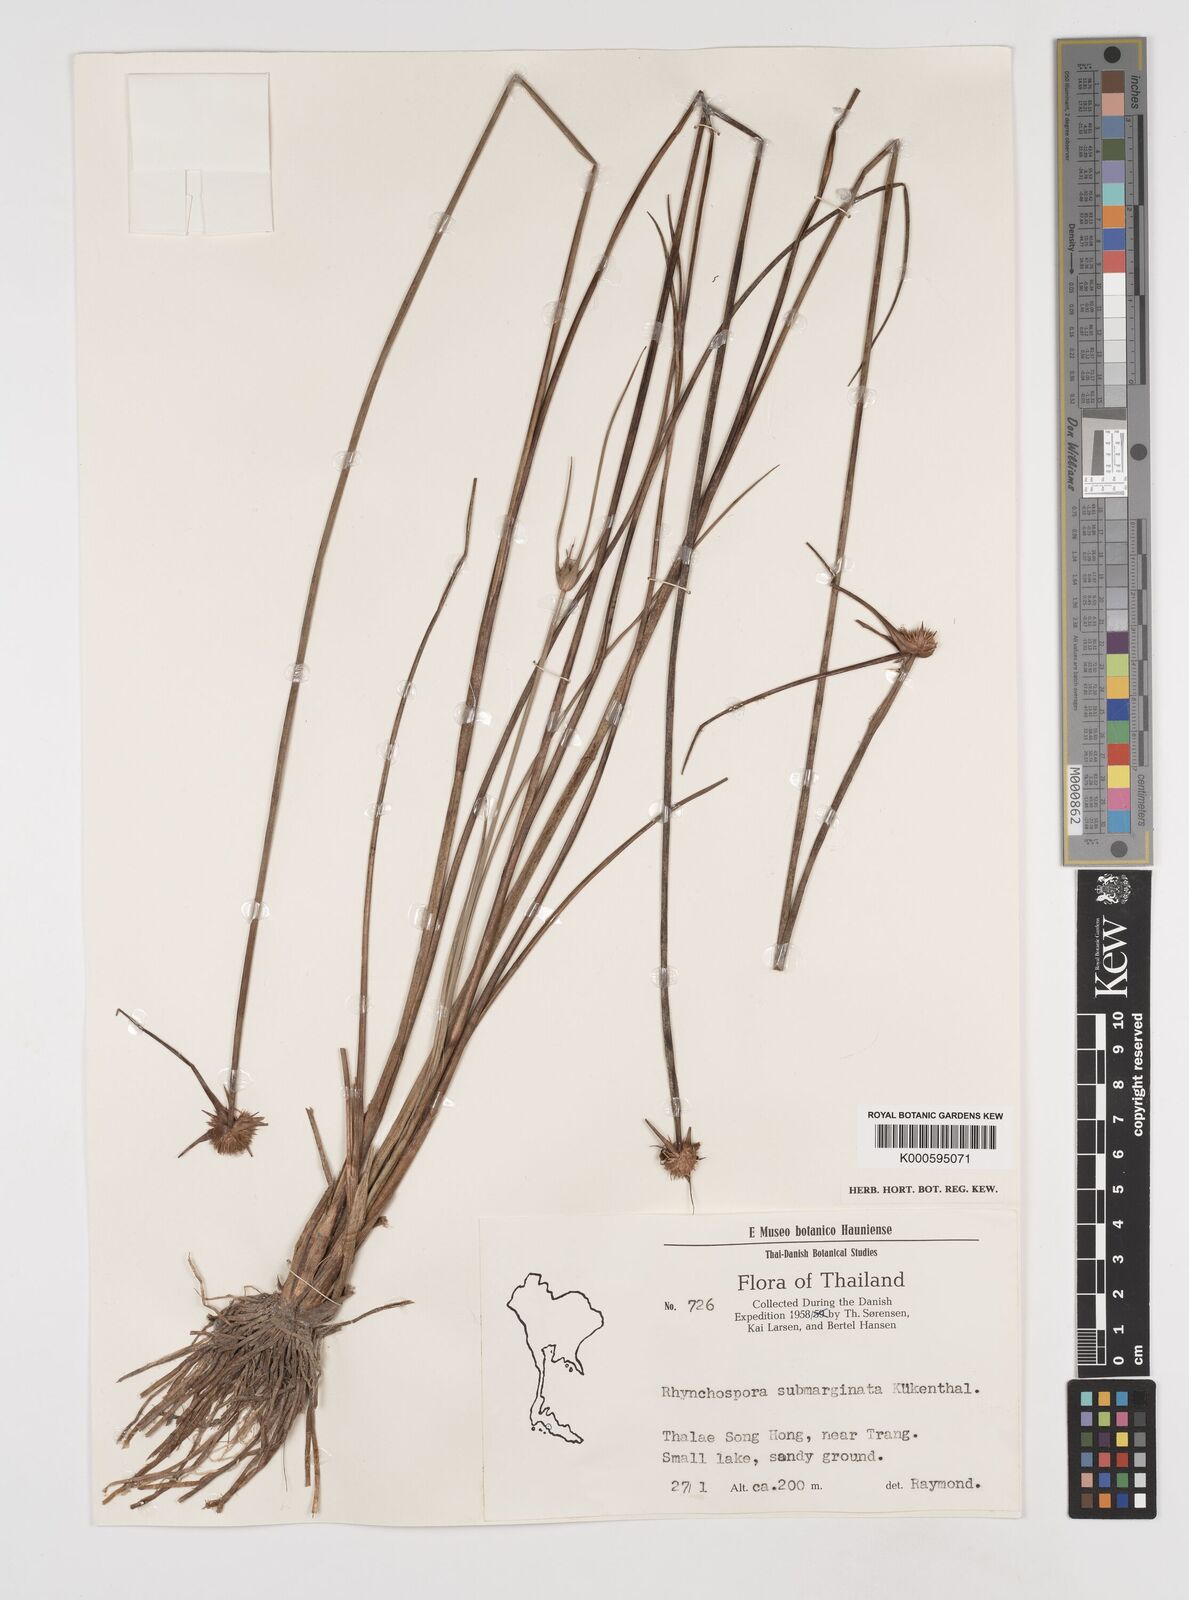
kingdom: Plantae
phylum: Tracheophyta
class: Liliopsida
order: Poales
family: Cyperaceae
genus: Rhynchospora
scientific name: Rhynchospora rubra
